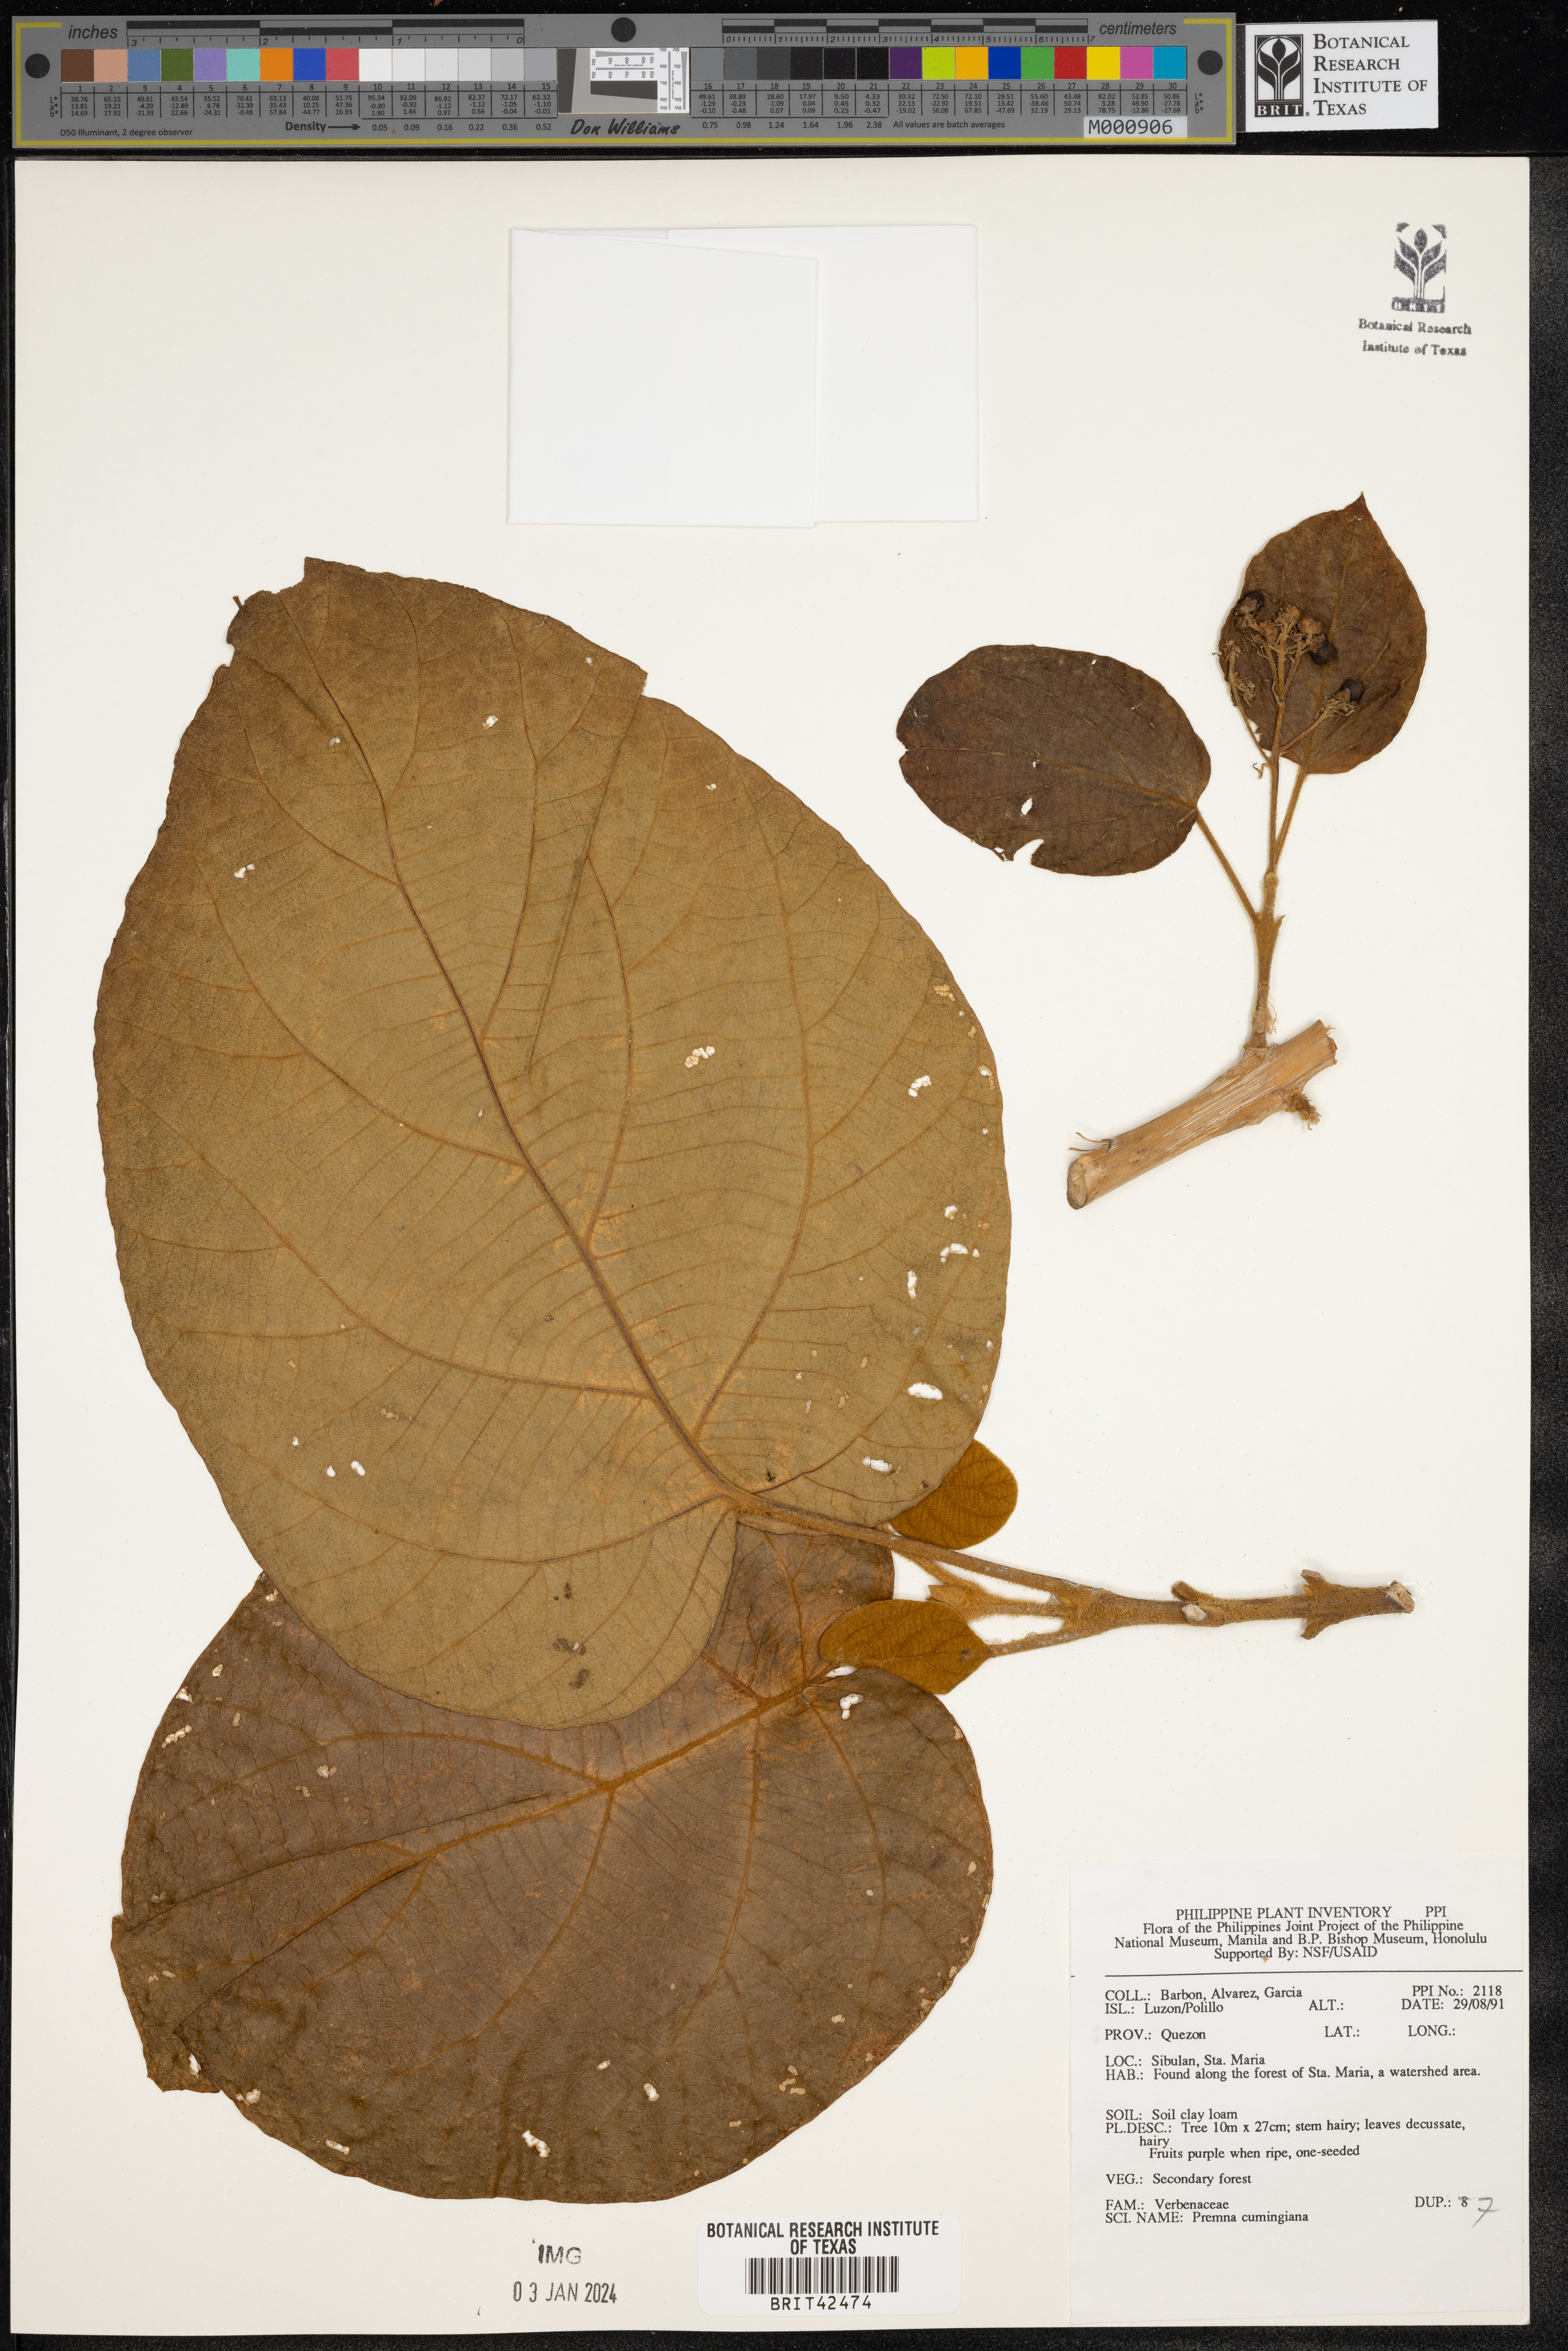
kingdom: Plantae
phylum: Tracheophyta
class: Magnoliopsida
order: Lamiales
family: Lamiaceae
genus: Premna
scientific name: Premna tomentosa
